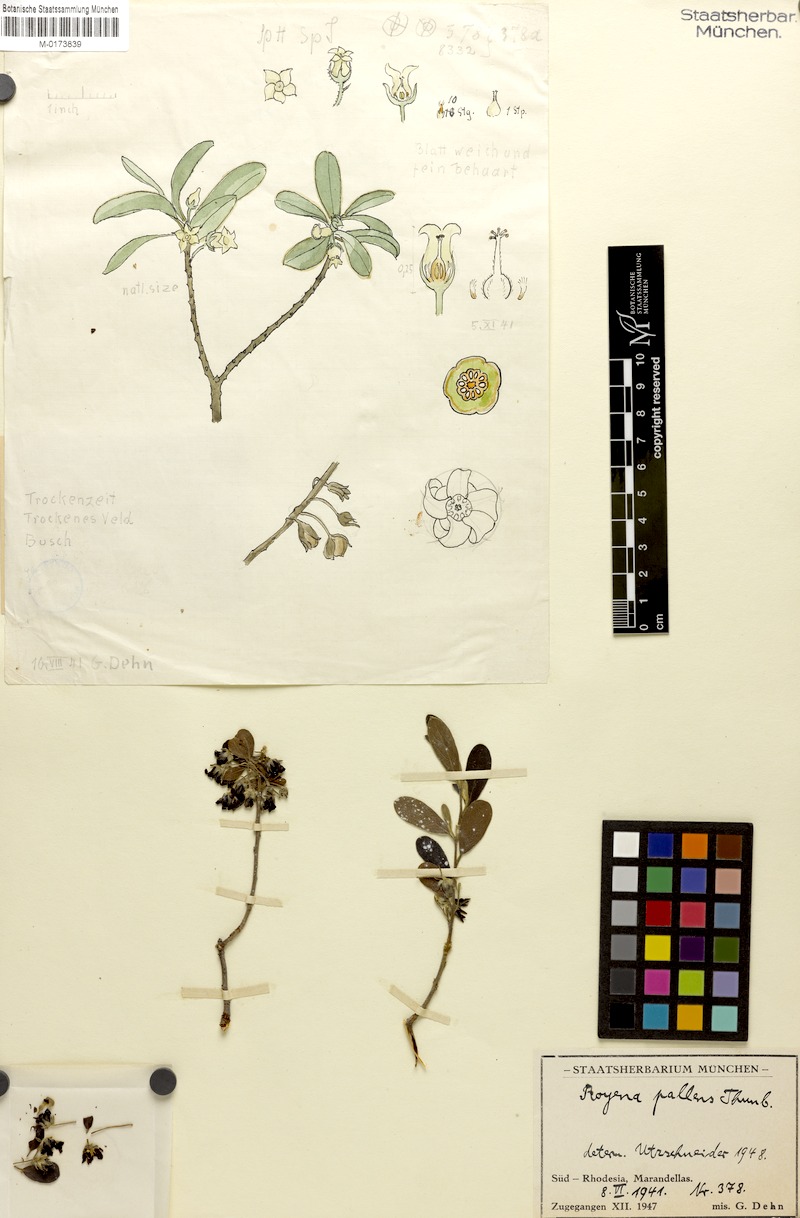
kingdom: Plantae
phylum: Tracheophyta
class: Magnoliopsida
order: Ericales
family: Ebenaceae
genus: Diospyros
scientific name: Diospyros pallens
